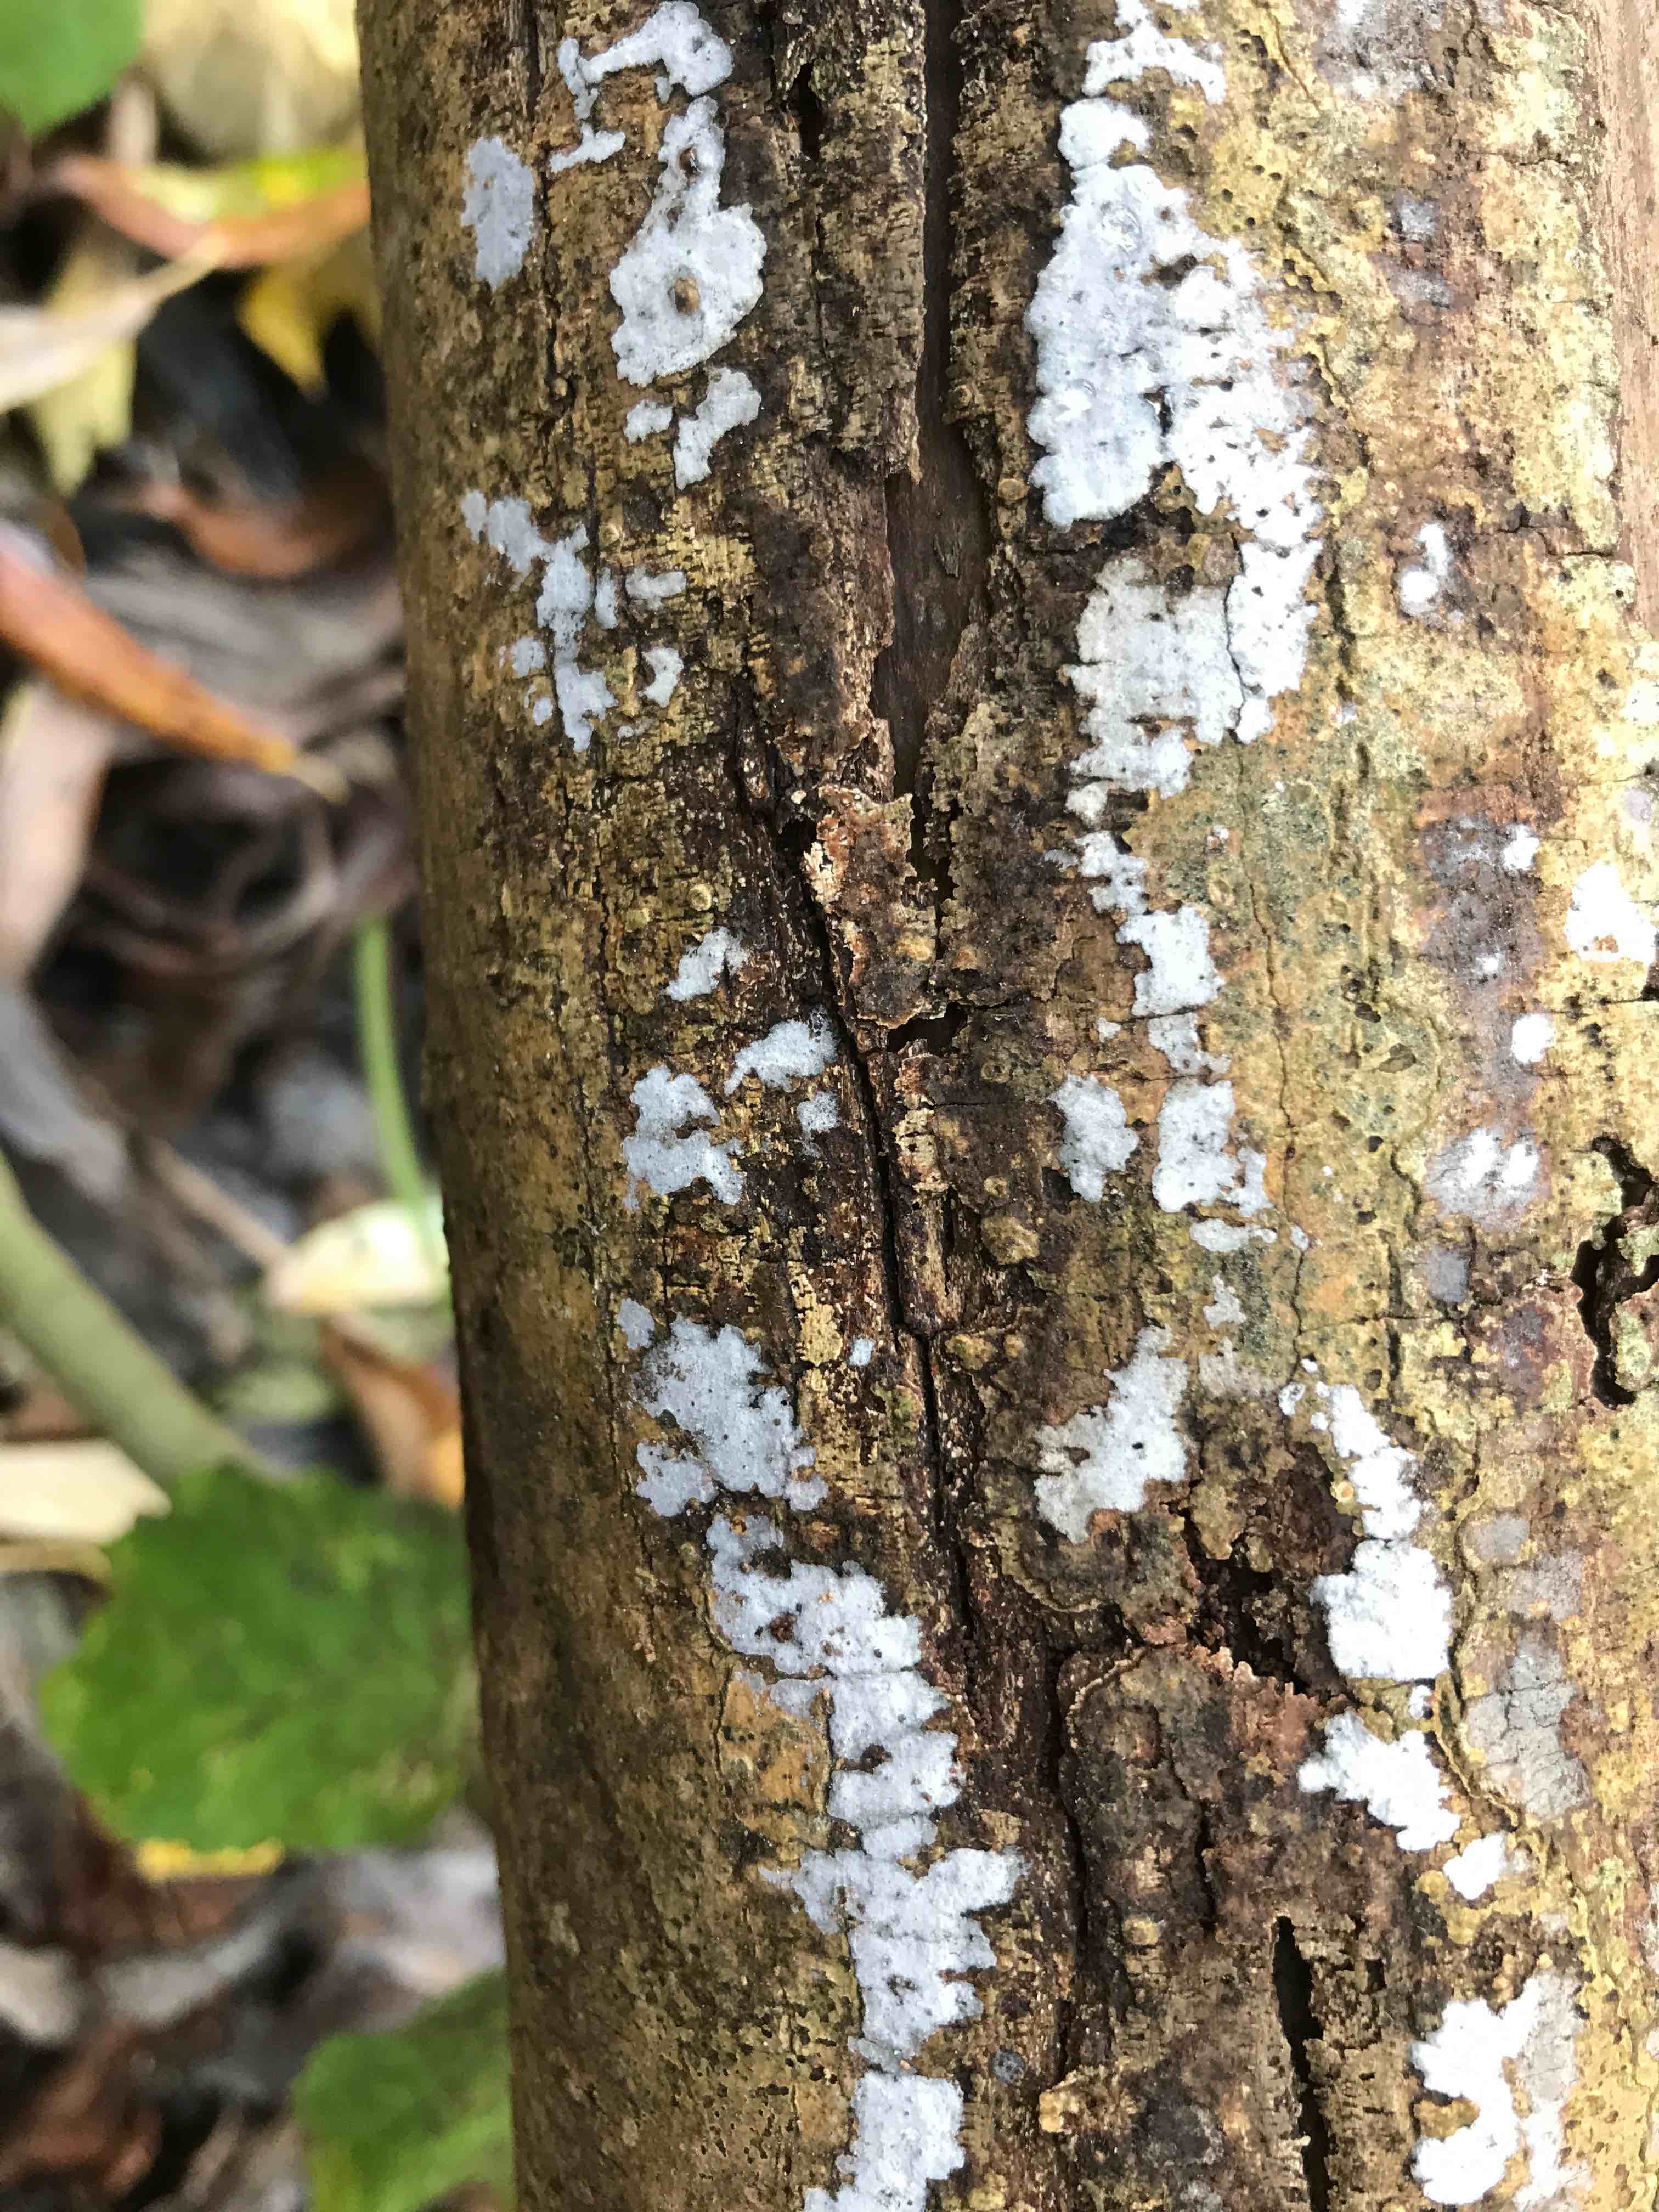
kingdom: Fungi
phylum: Basidiomycota
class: Agaricomycetes
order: Corticiales
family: Corticiaceae
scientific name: Corticiaceae
